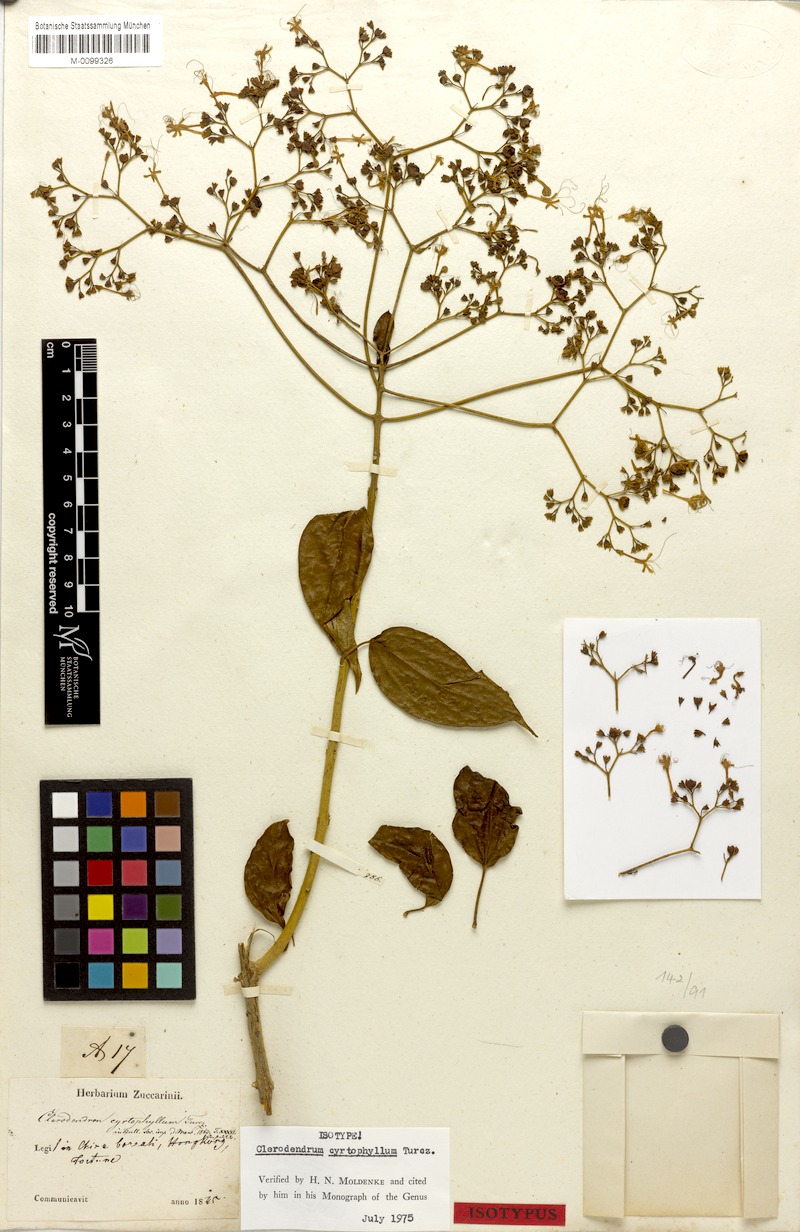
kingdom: Plantae
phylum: Tracheophyta
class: Magnoliopsida
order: Lamiales
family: Lamiaceae
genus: Clerodendrum
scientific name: Clerodendrum cyrtophyllum
